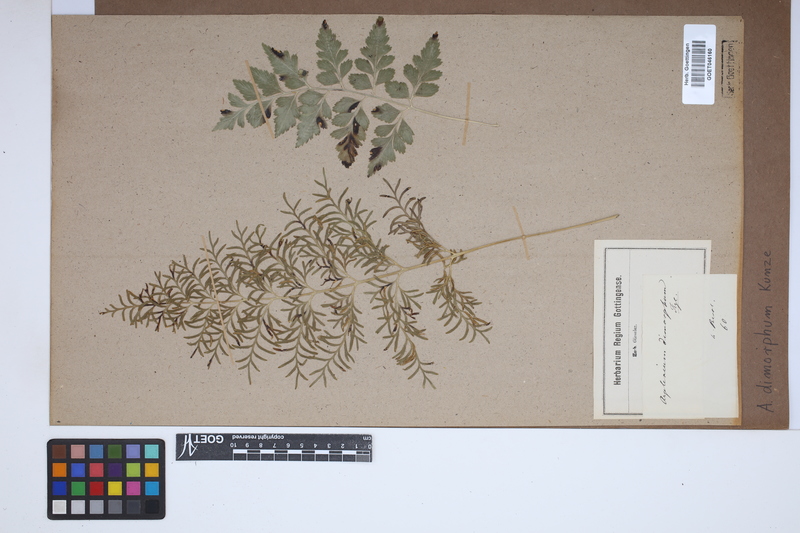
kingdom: Plantae
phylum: Tracheophyta
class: Polypodiopsida
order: Polypodiales
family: Aspleniaceae
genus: Asplenium
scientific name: Asplenium dimorphum
